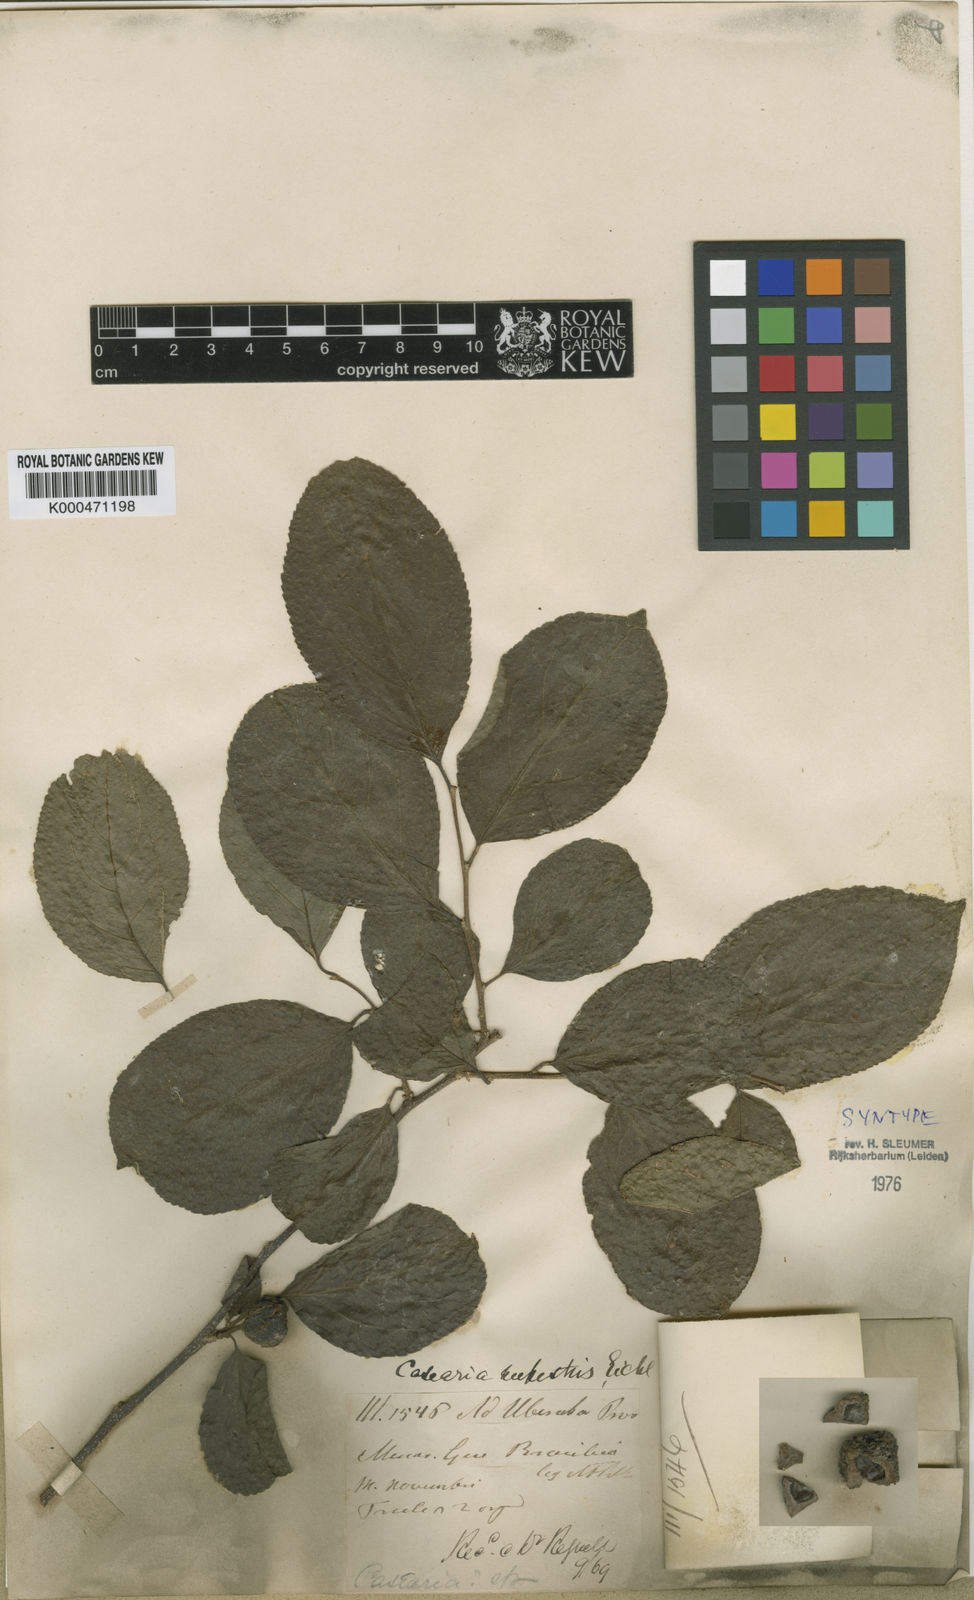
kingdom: Plantae
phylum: Tracheophyta
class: Magnoliopsida
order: Malpighiales
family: Salicaceae
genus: Casearia
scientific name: Casearia rupestris
